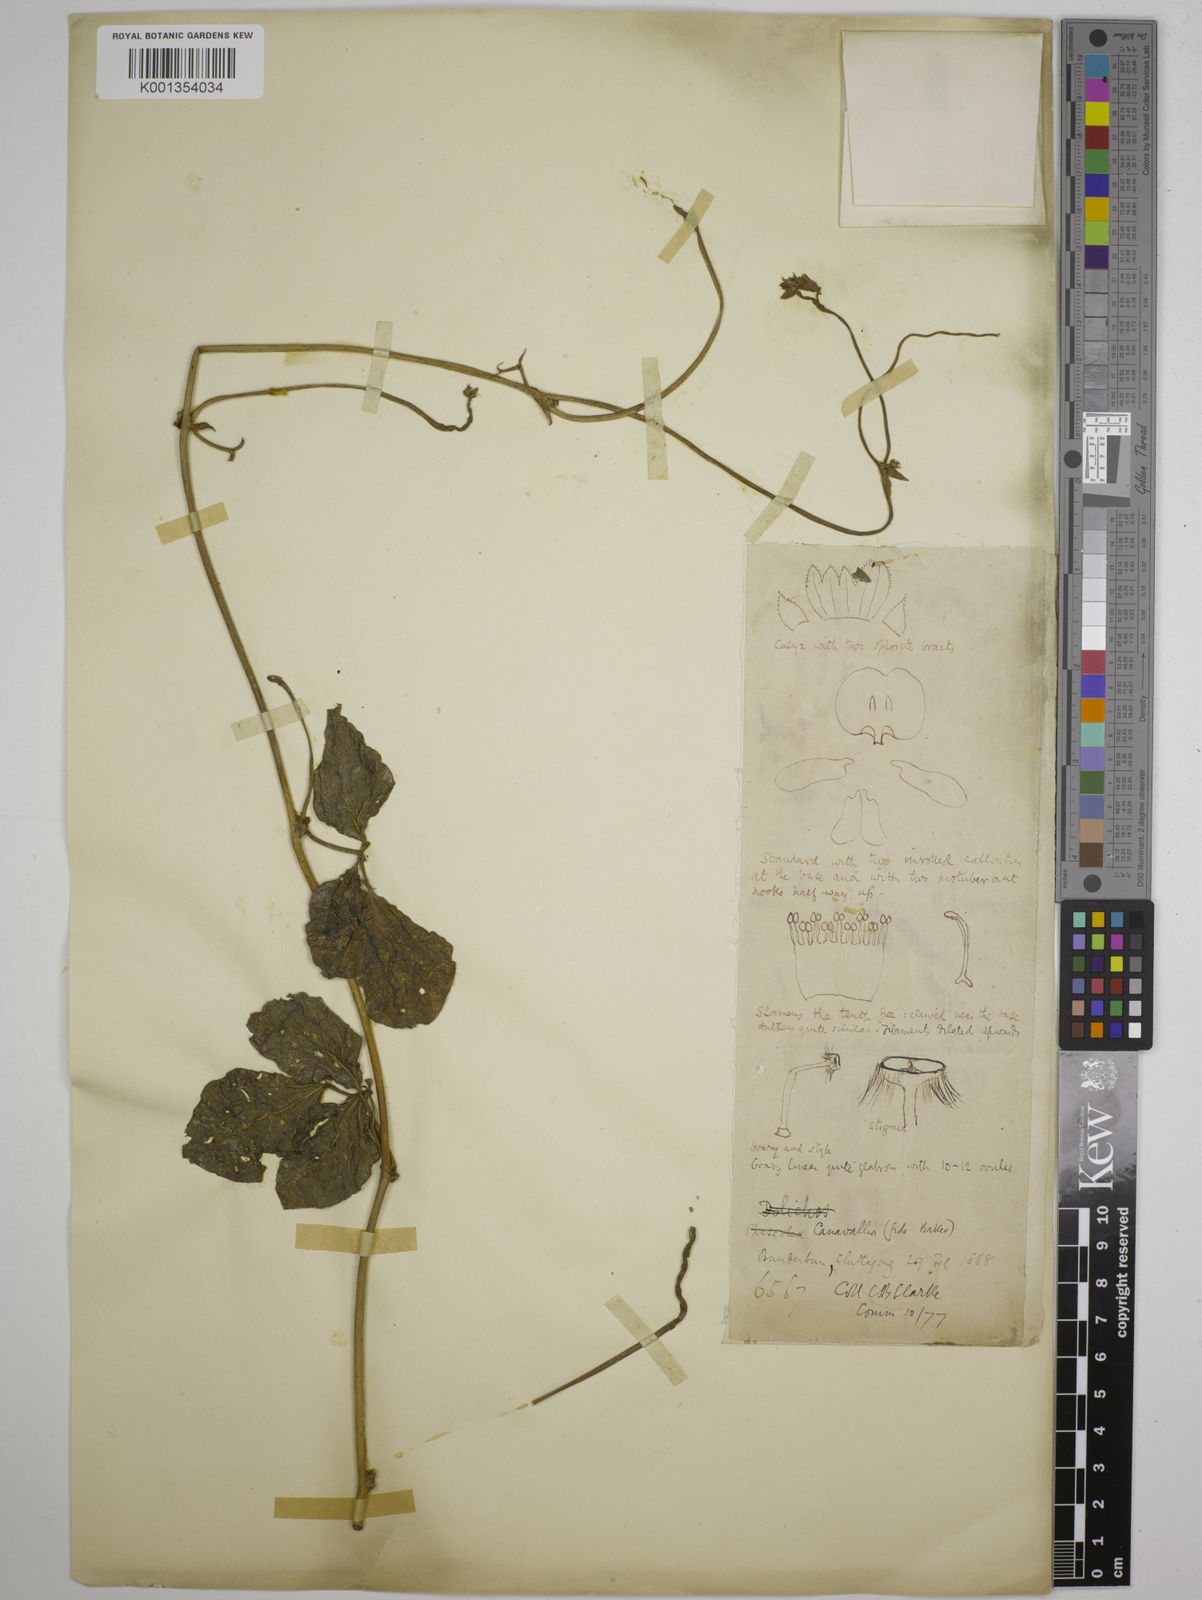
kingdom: Plantae
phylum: Tracheophyta
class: Magnoliopsida
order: Fabales
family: Fabaceae
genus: Wajira
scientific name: Wajira grahamiana
